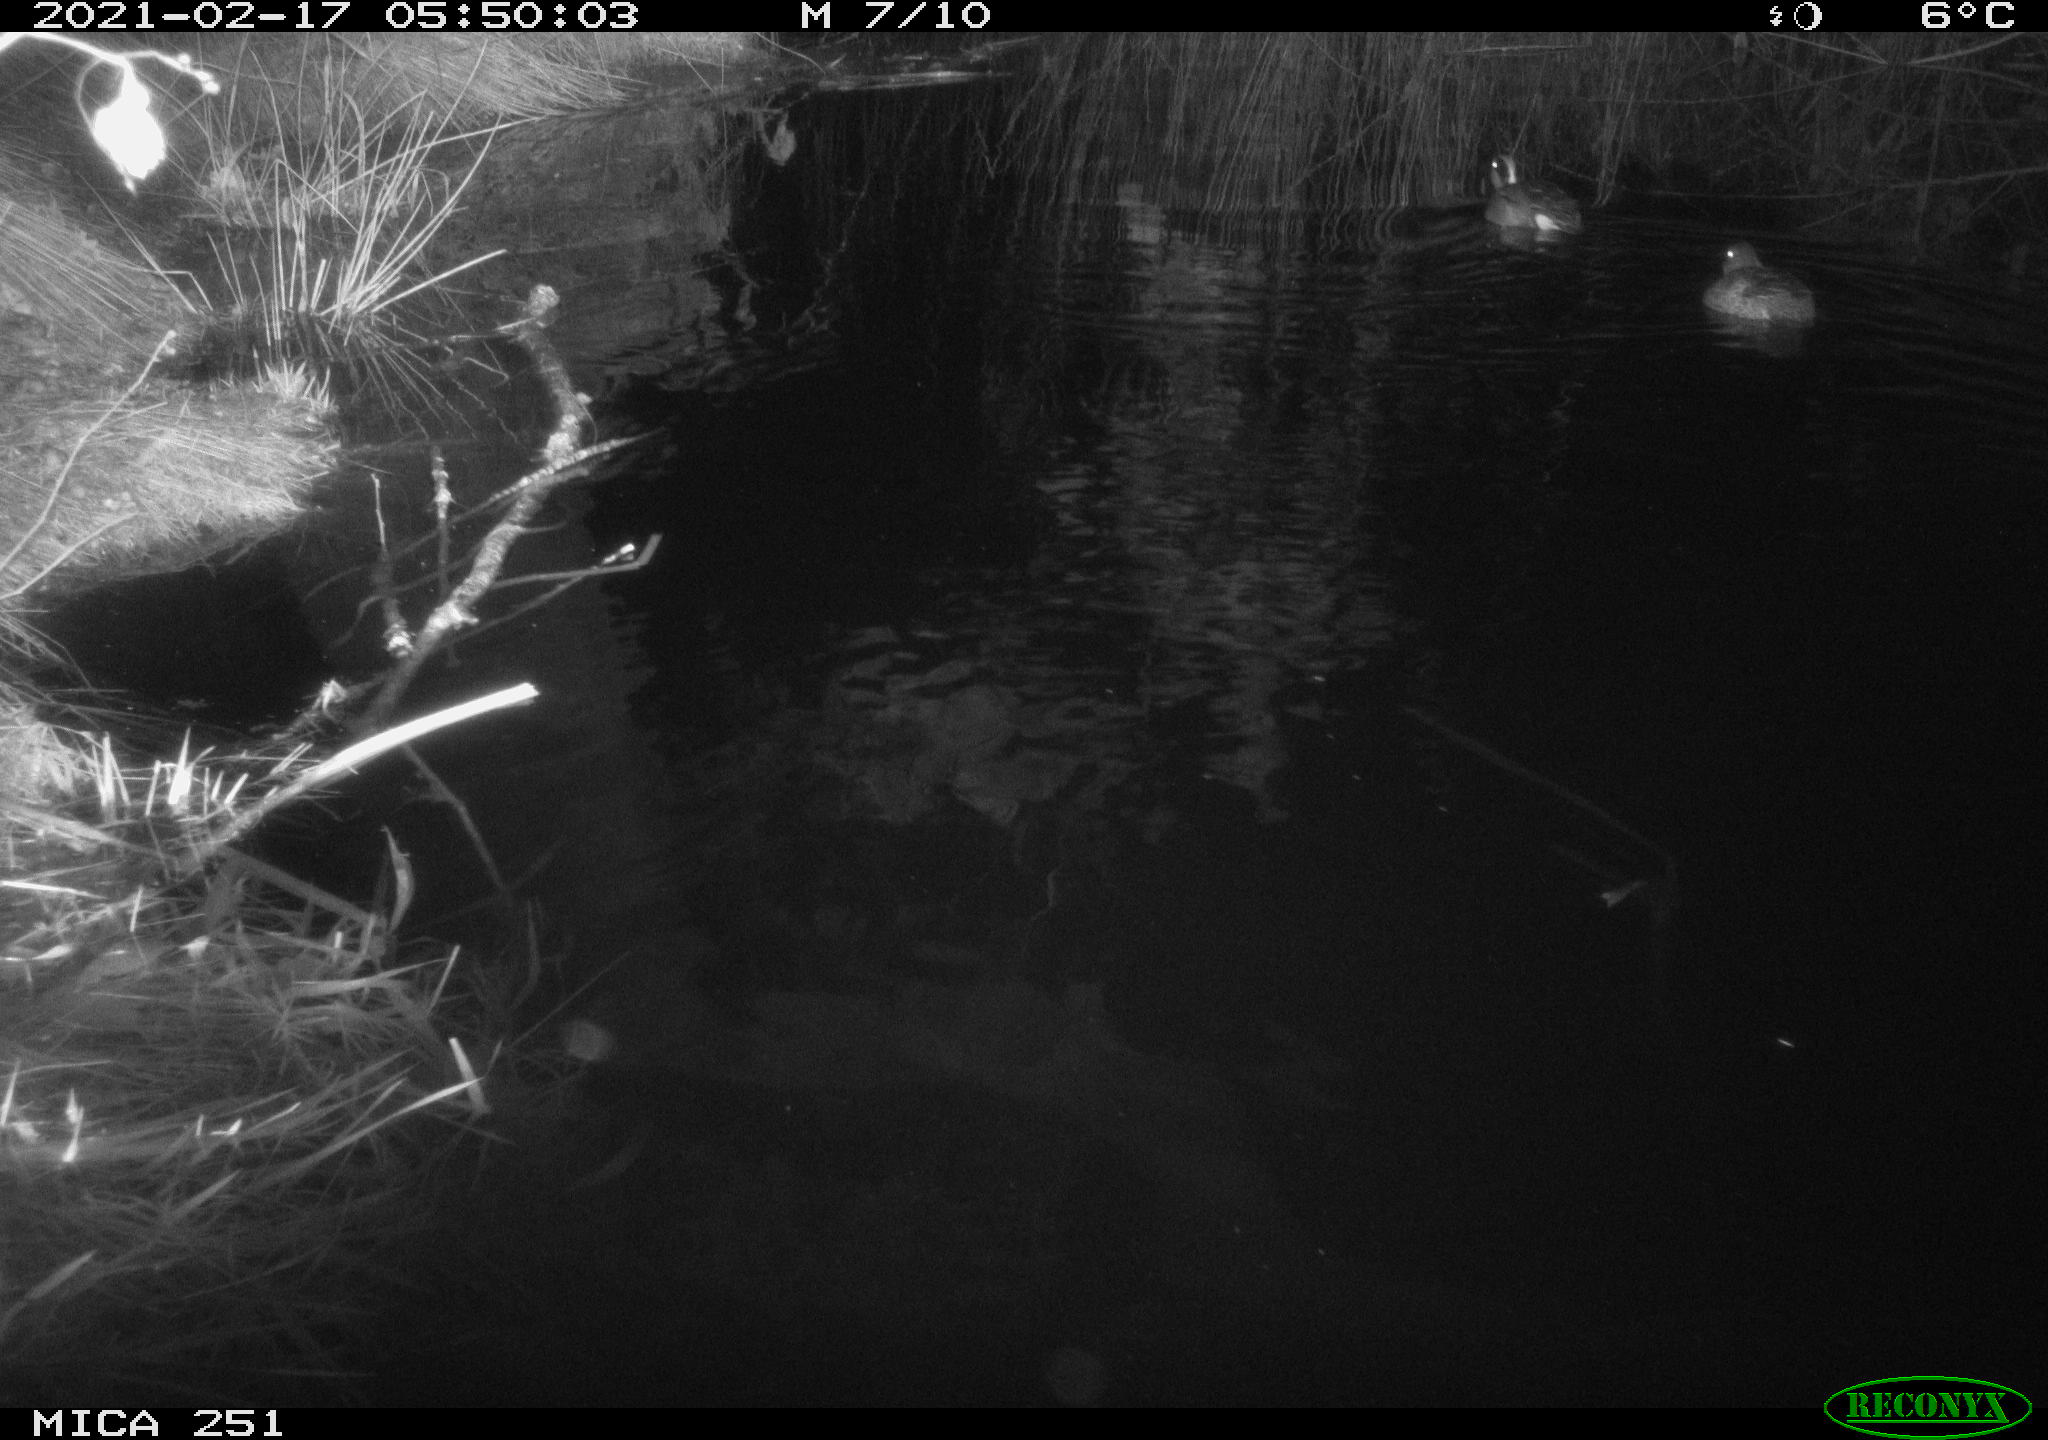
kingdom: Animalia
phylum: Chordata
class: Aves
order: Anseriformes
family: Anatidae
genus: Aix
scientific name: Aix galericulata
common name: Mandarin duck
